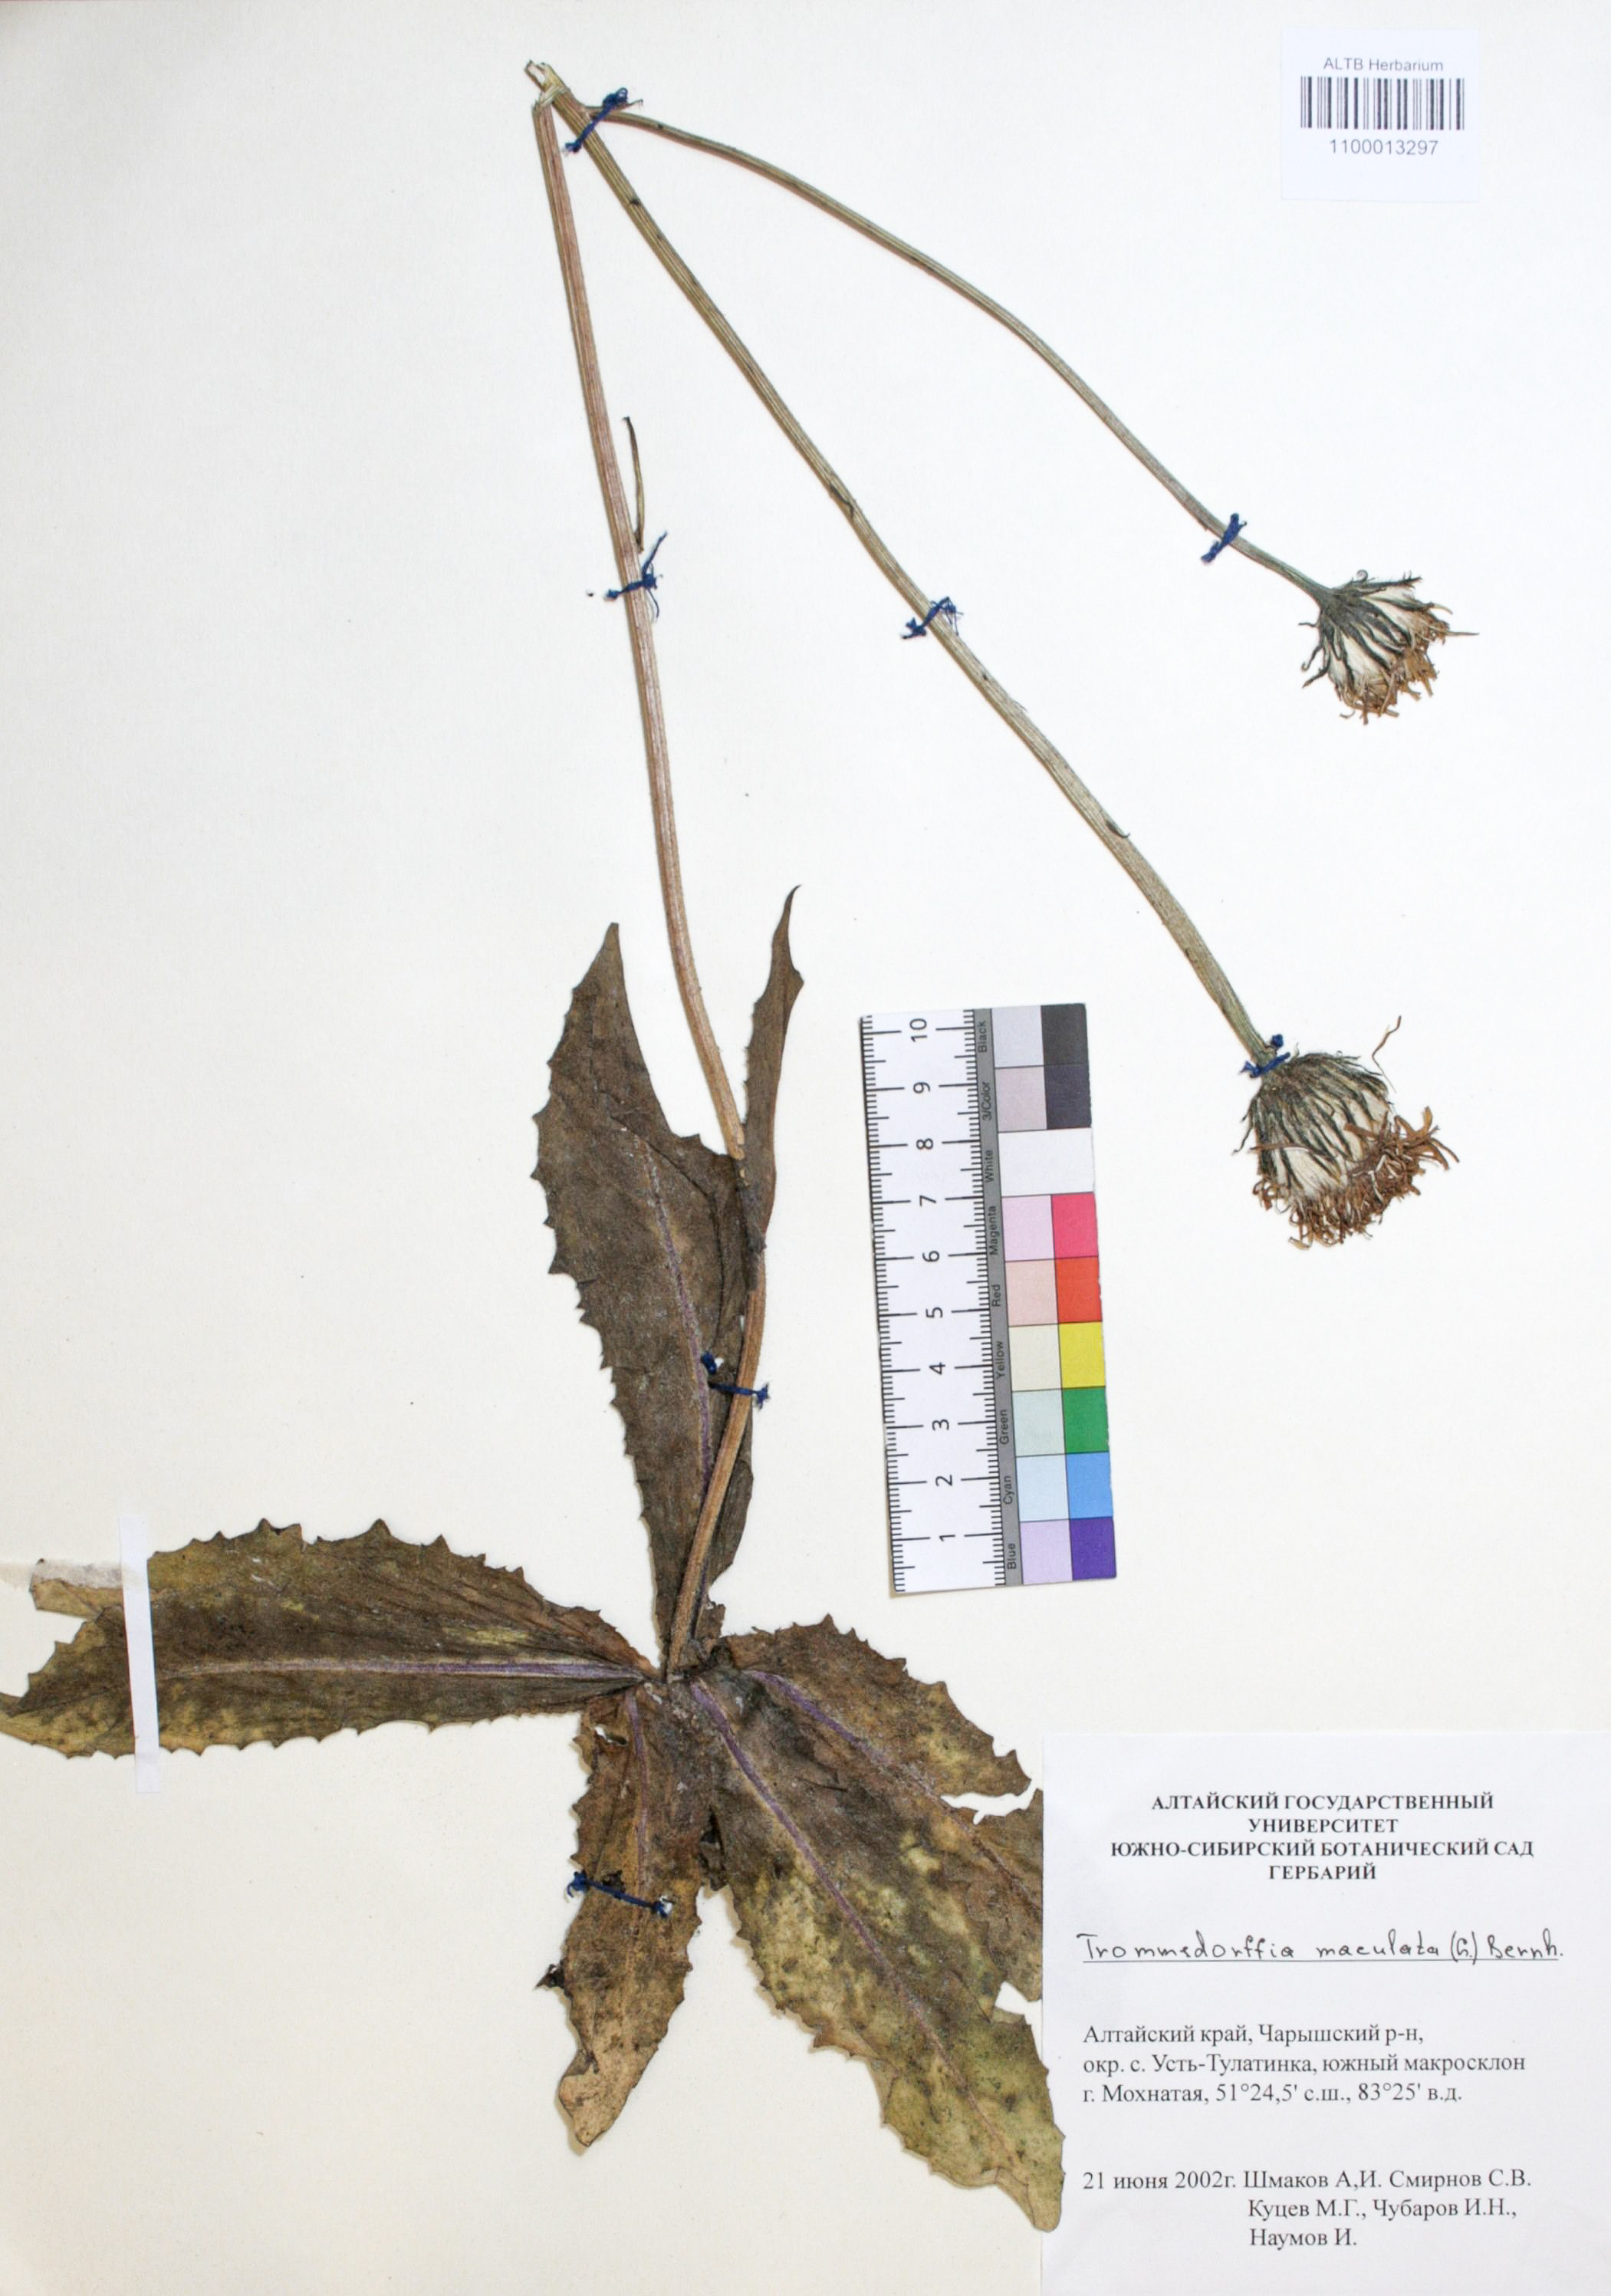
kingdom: Plantae
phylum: Tracheophyta
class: Magnoliopsida
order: Asterales
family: Asteraceae
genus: Trommsdorffia
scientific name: Trommsdorffia maculata
